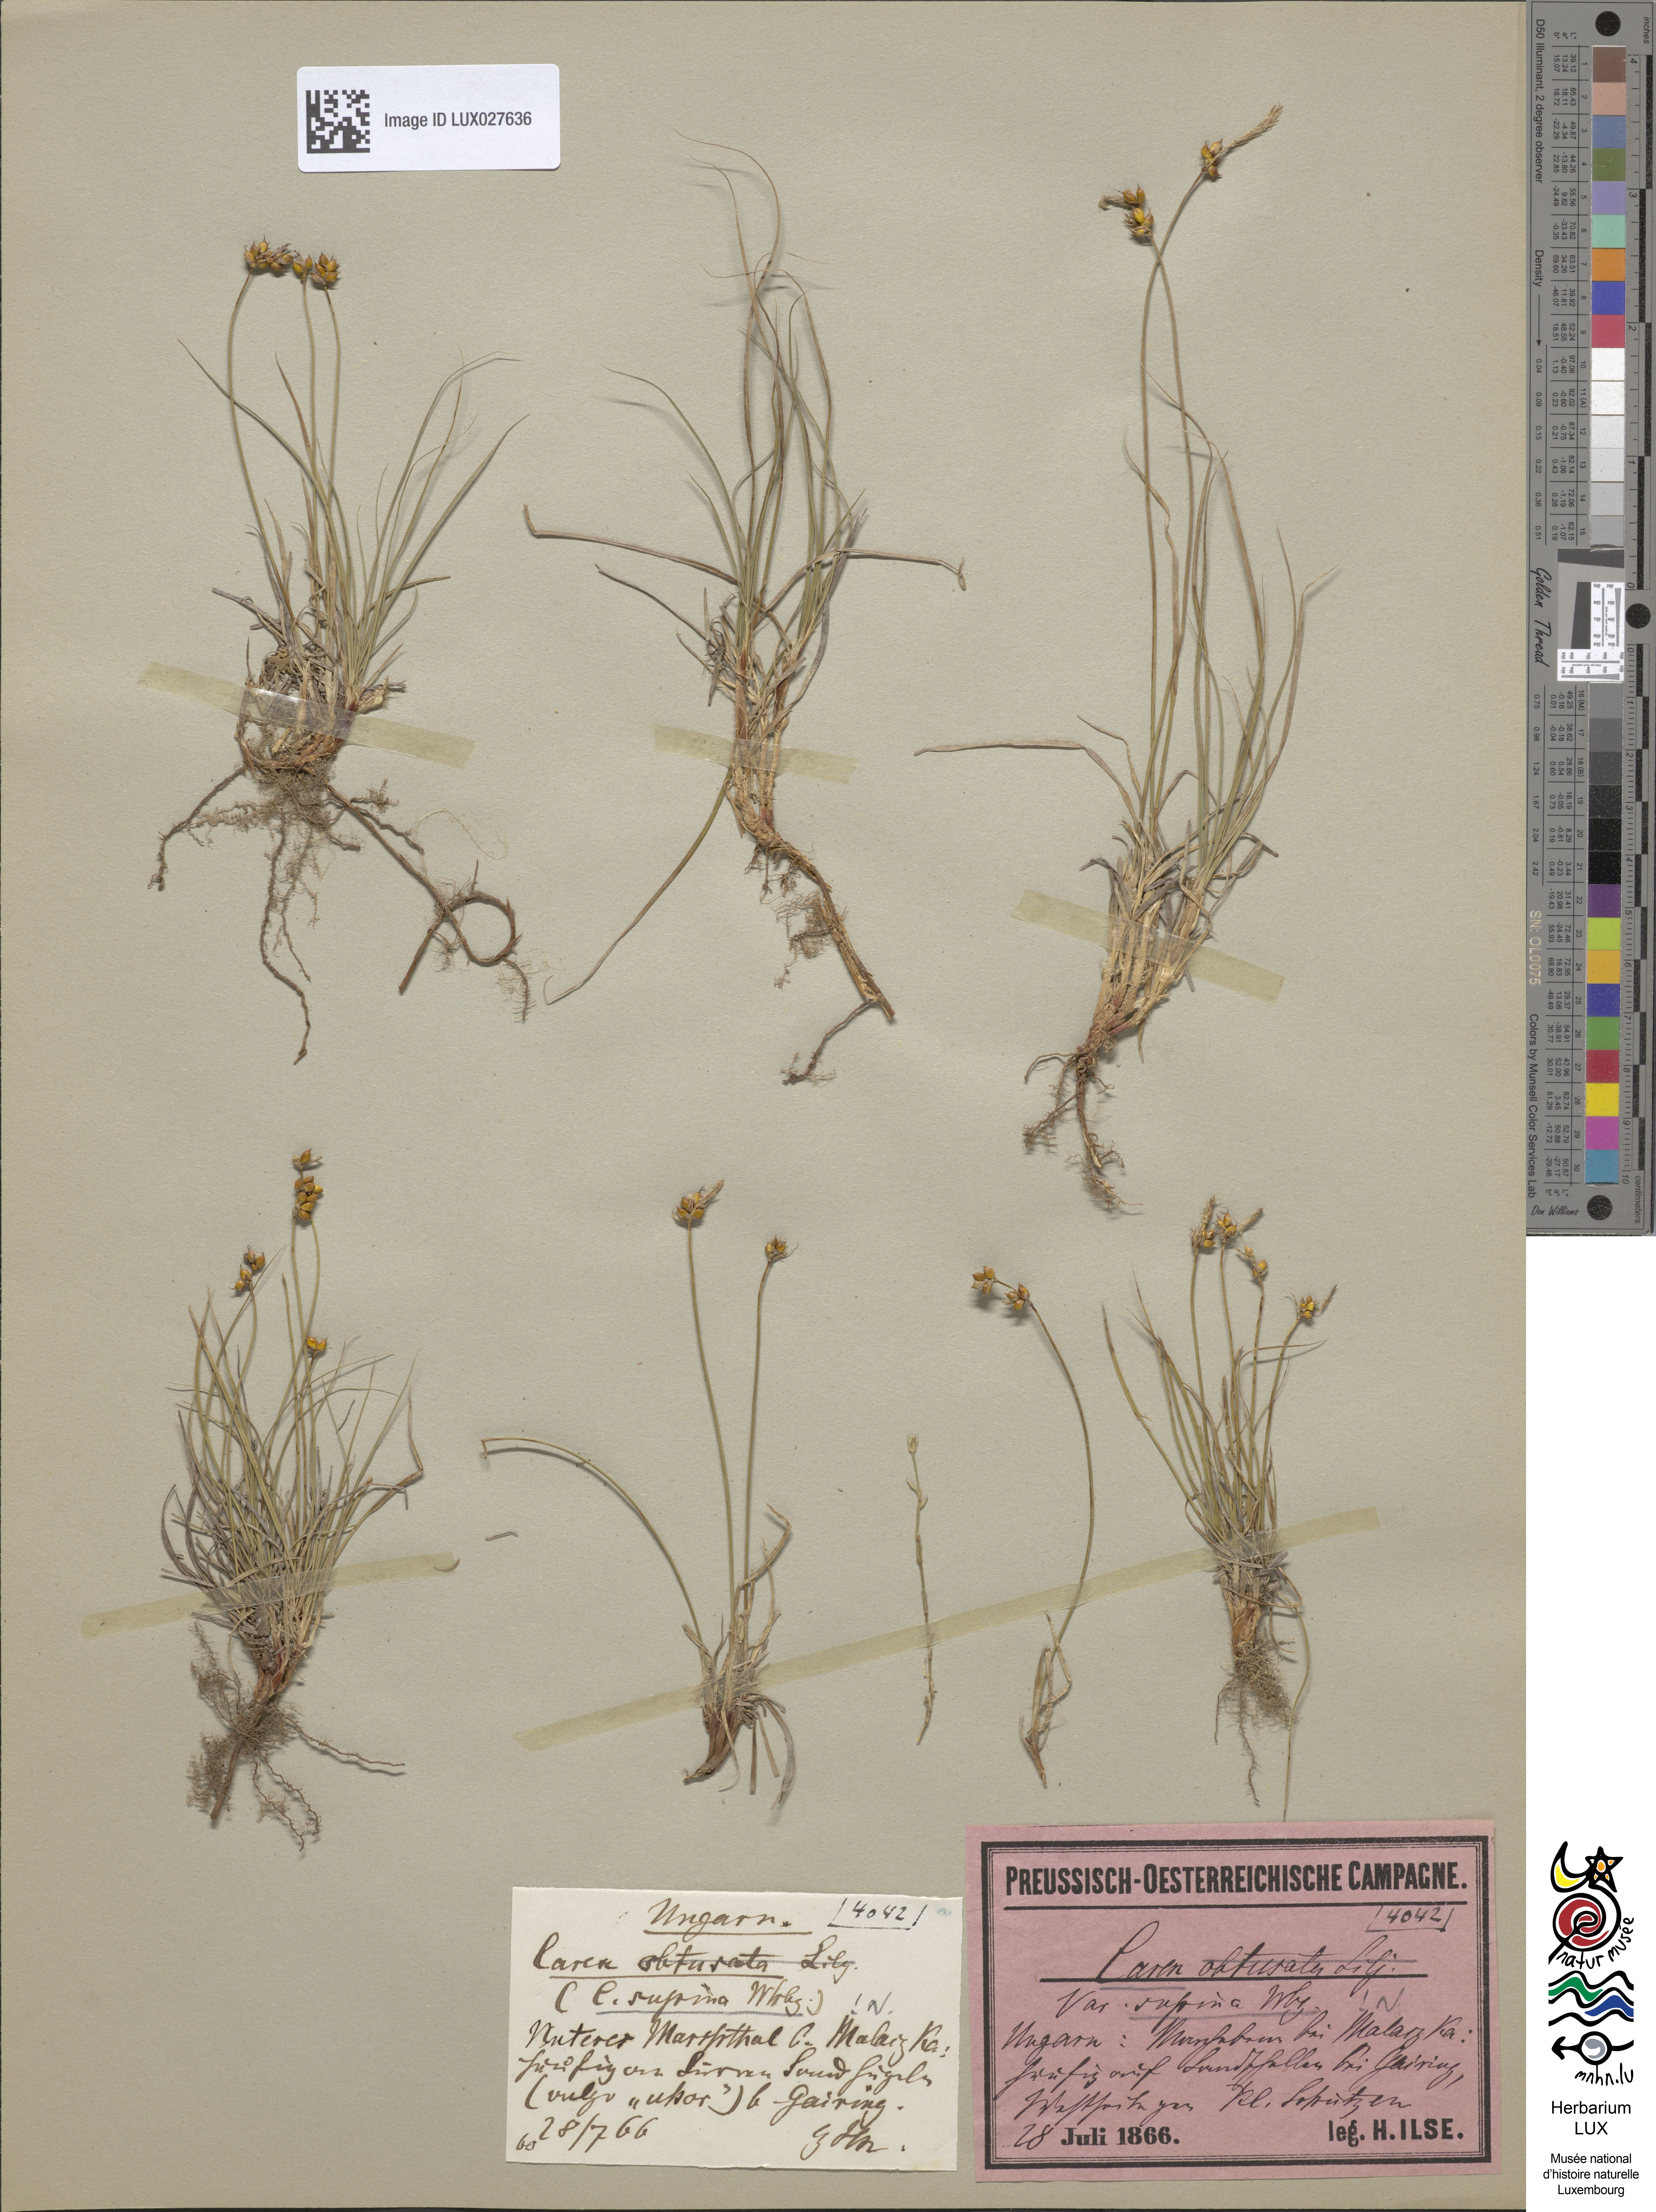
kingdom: Plantae
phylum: Tracheophyta
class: Liliopsida
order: Poales
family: Cyperaceae
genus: Carex
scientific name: Carex obtusata
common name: Blunt sedge
